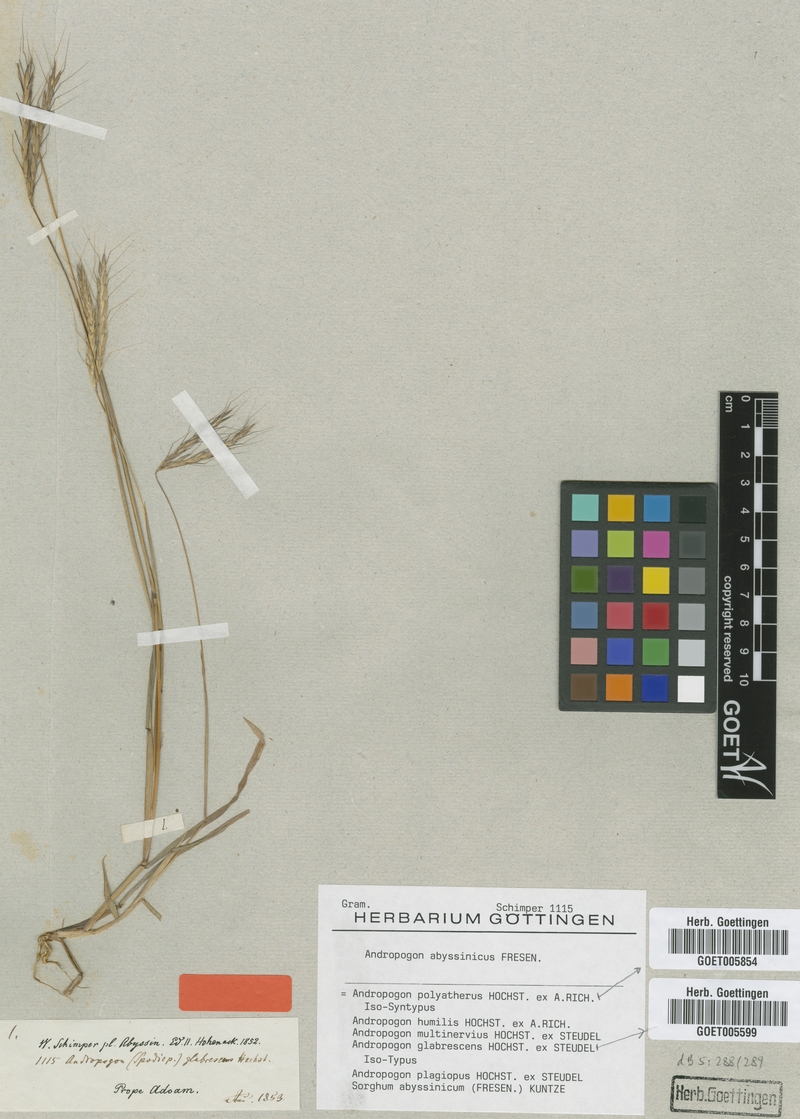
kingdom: Plantae
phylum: Tracheophyta
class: Liliopsida
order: Poales
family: Poaceae
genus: Andropogon
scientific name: Andropogon abyssinicus
